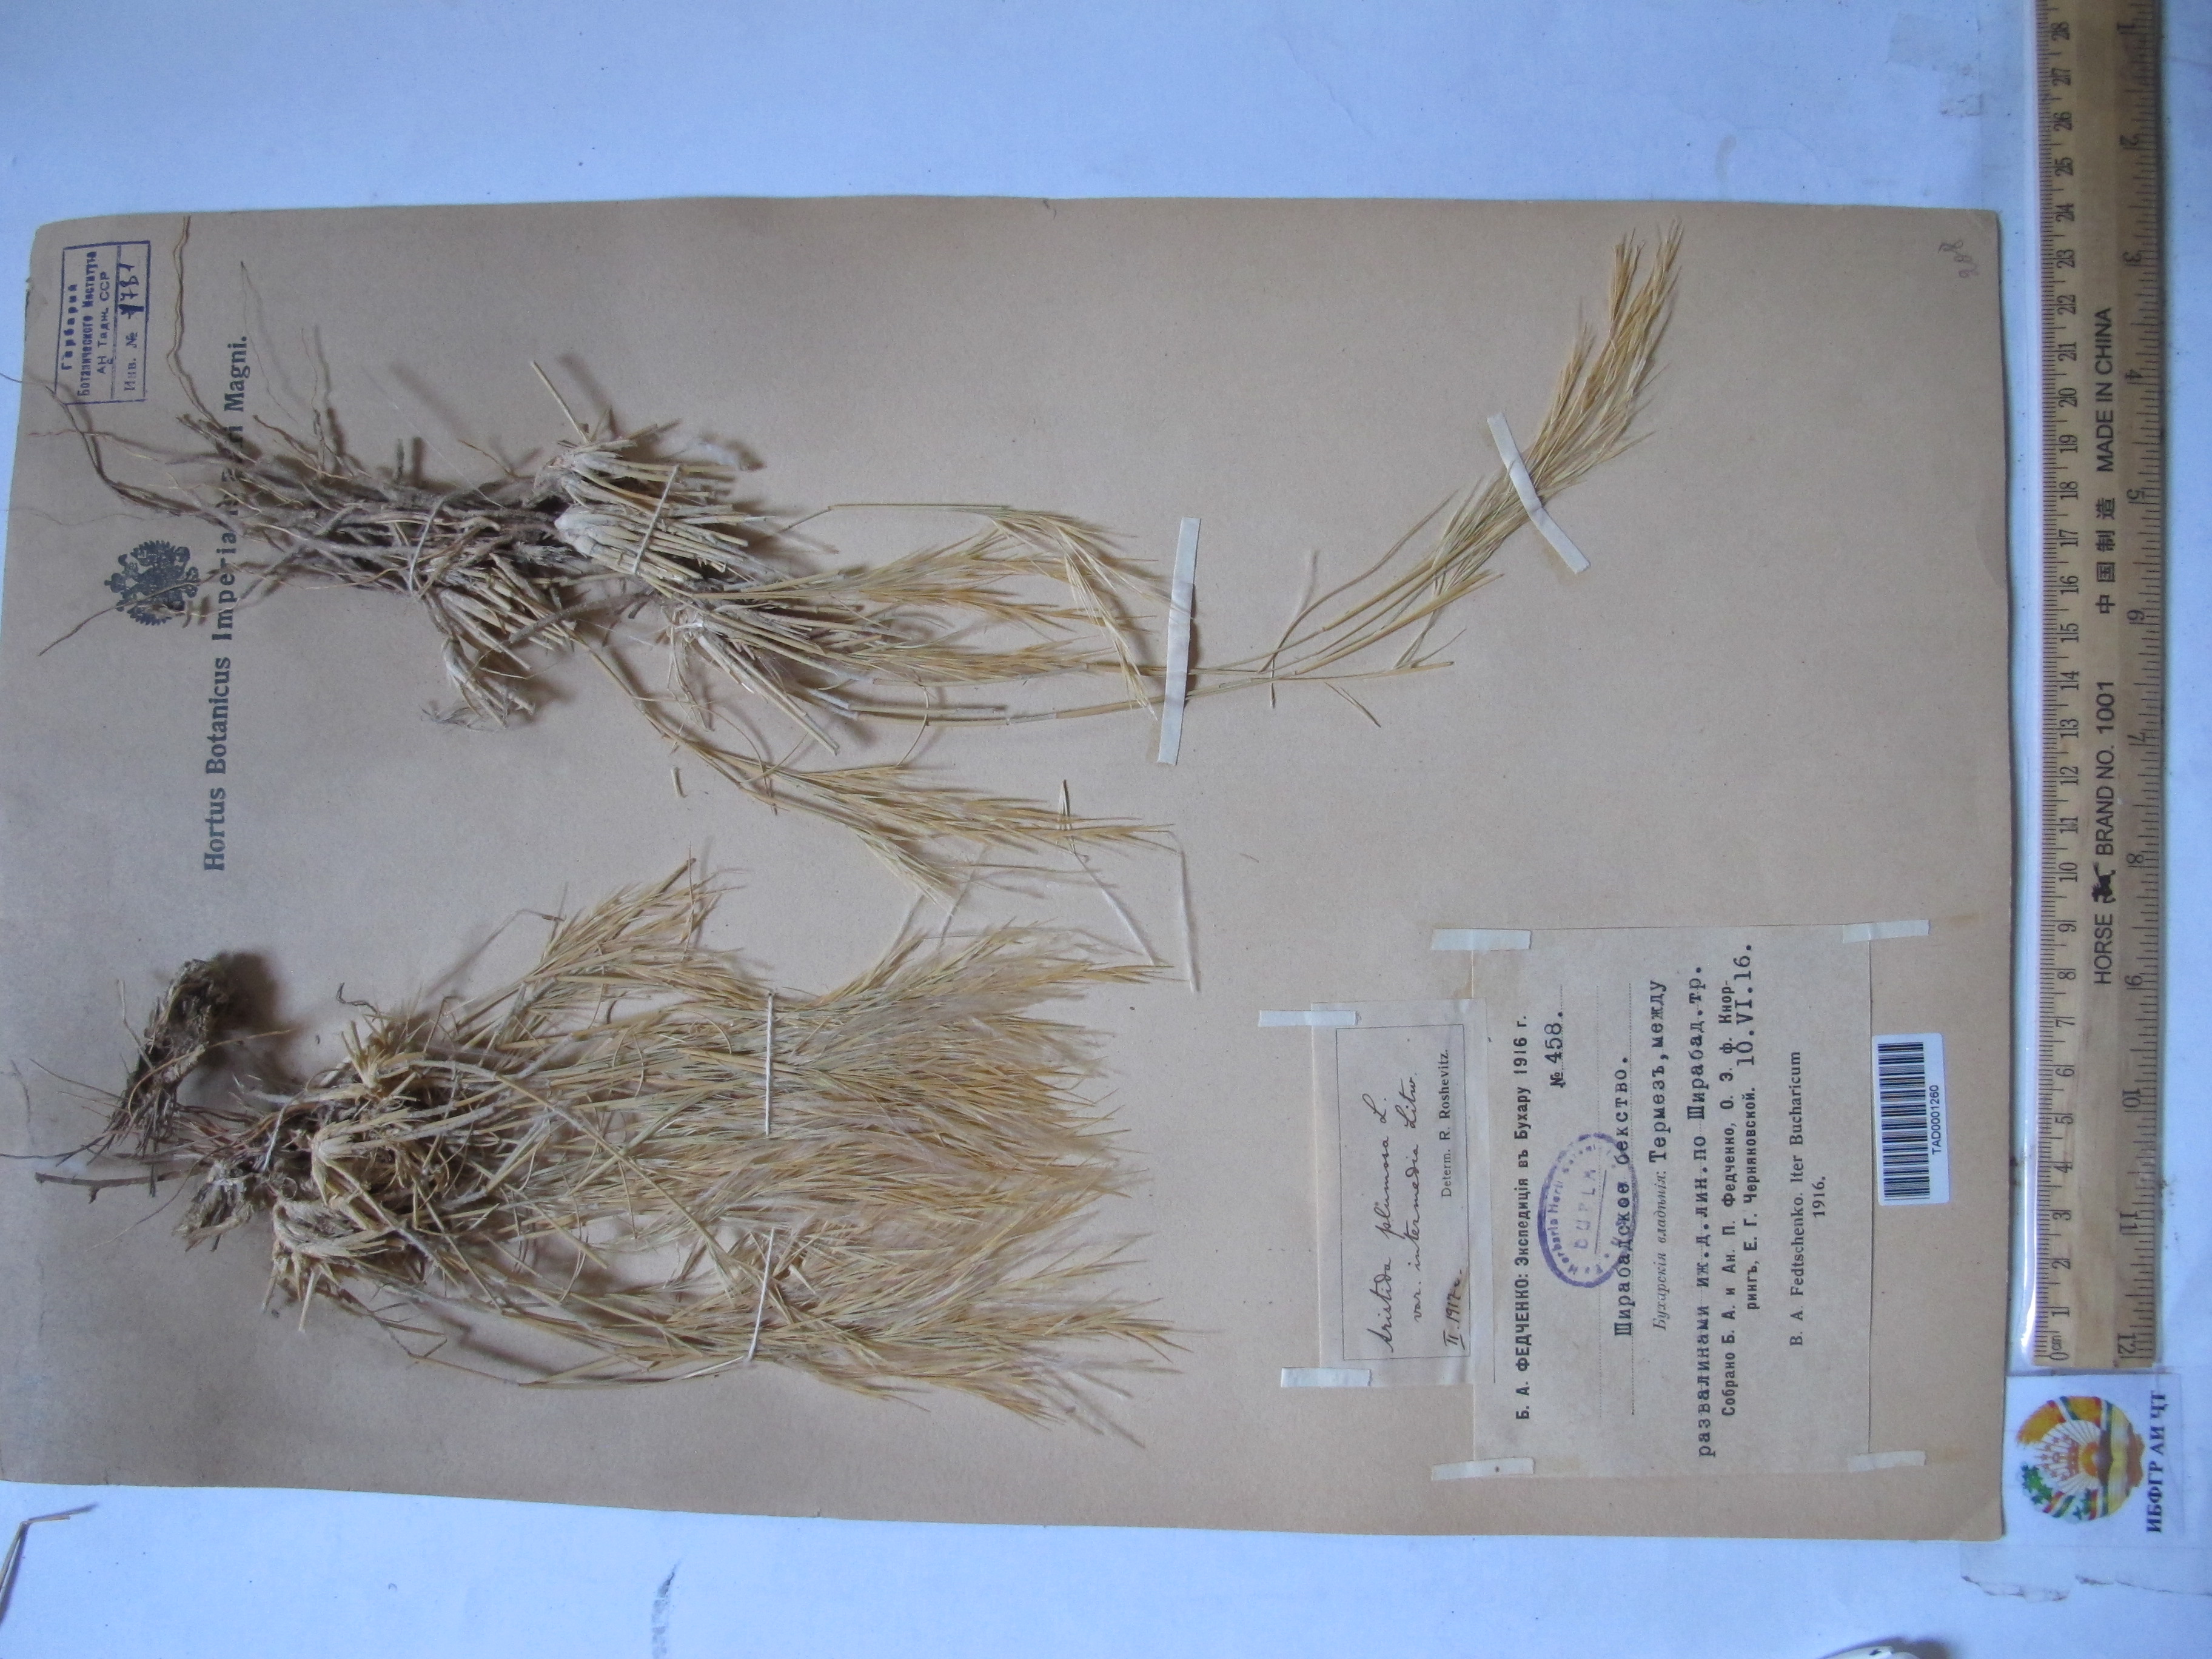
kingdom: Plantae
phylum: Tracheophyta
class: Liliopsida
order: Poales
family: Poaceae
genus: Stipagrostis
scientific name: Stipagrostis plumosa
